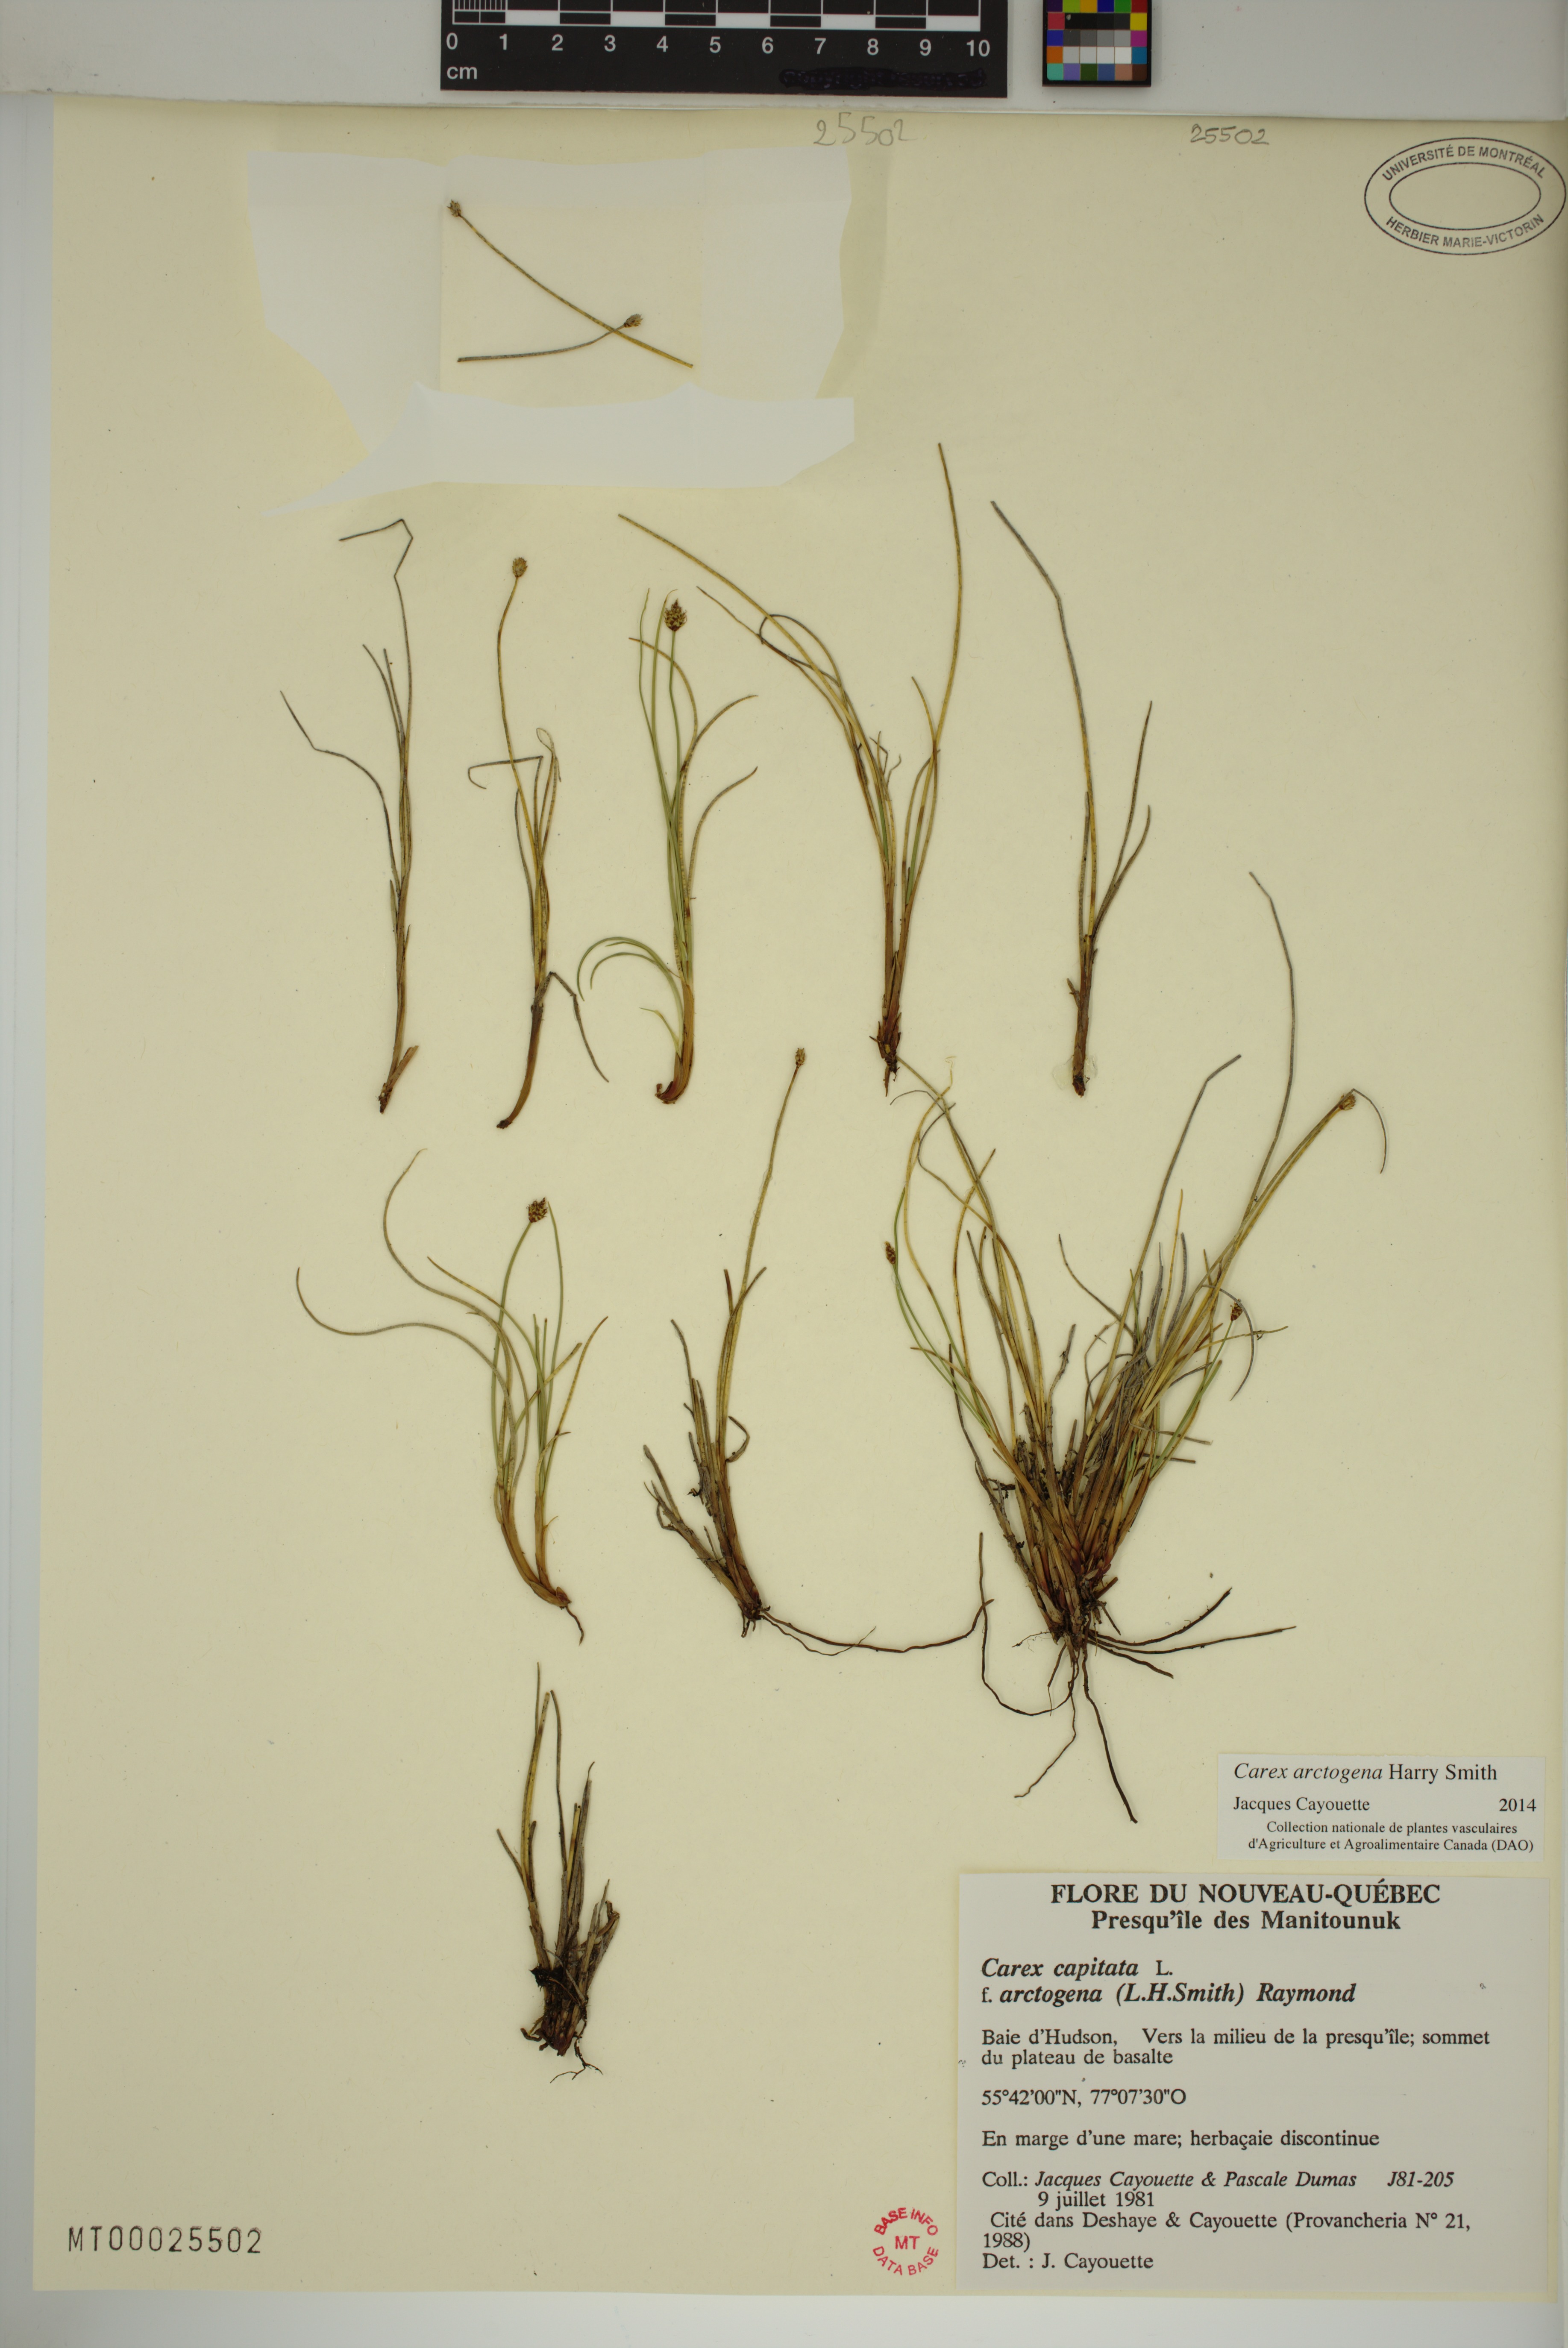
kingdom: Plantae
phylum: Tracheophyta
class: Liliopsida
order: Poales
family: Cyperaceae
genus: Carex
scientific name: Carex arctogena
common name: Black sedge
